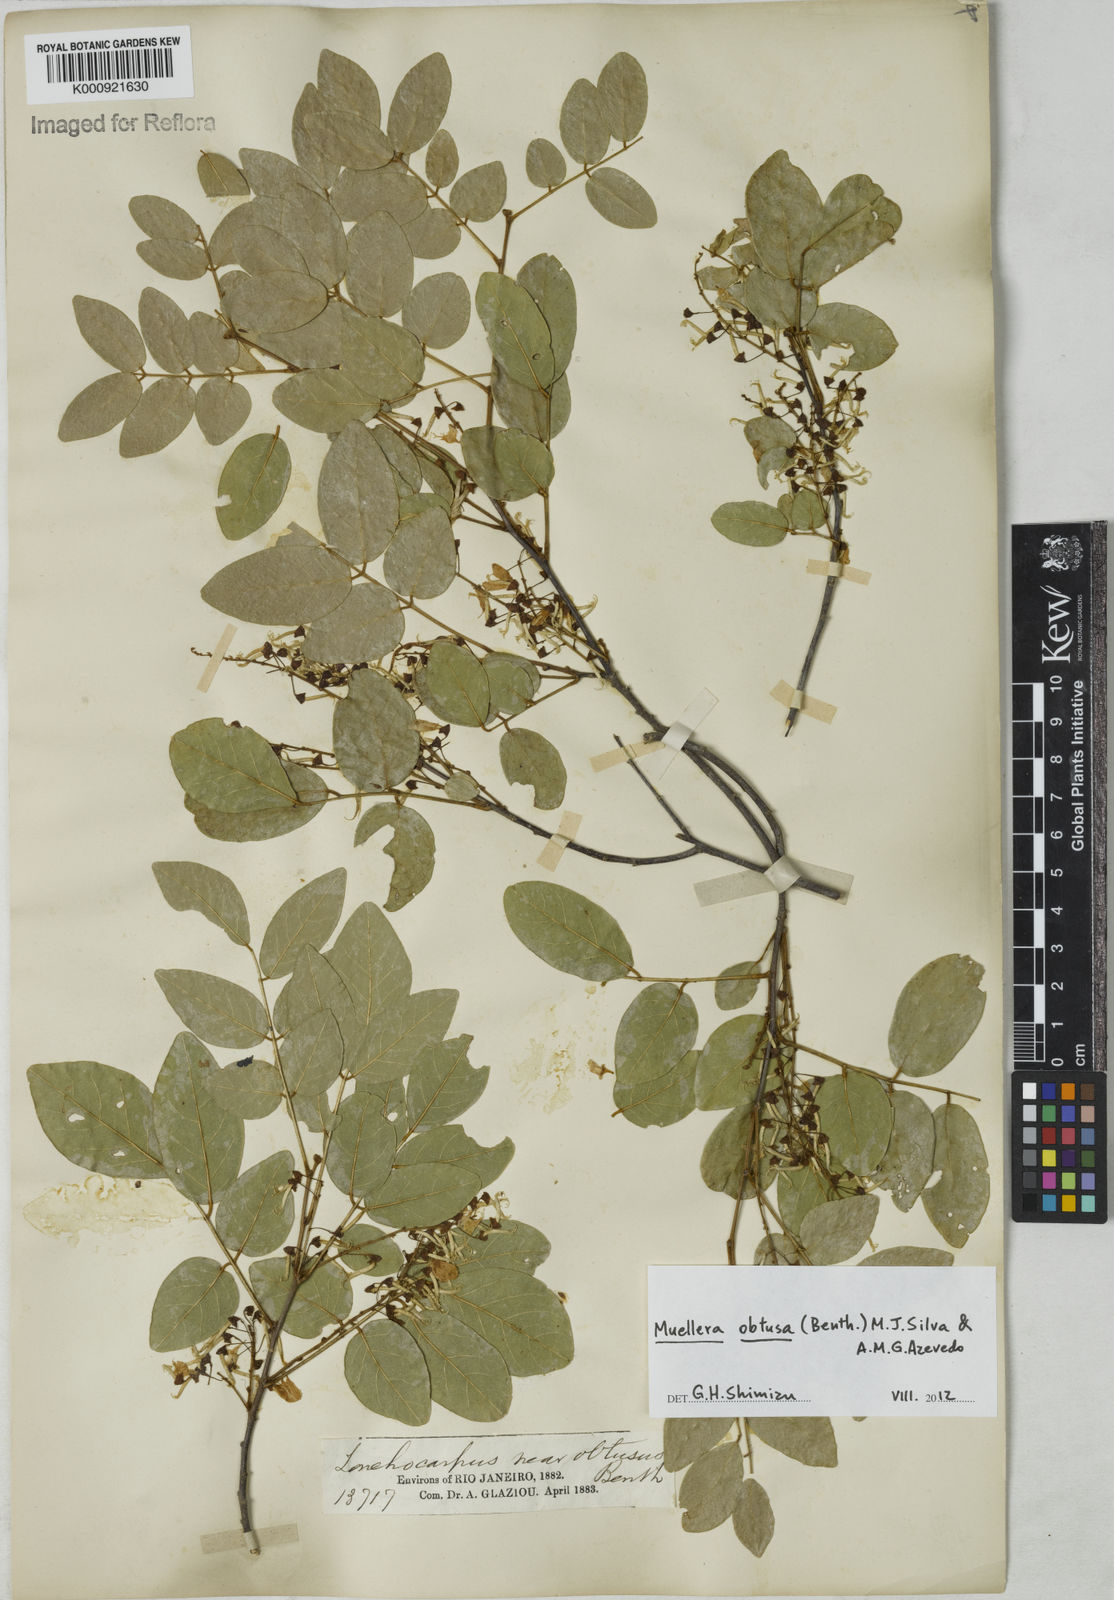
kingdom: Plantae
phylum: Tracheophyta
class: Magnoliopsida
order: Fabales
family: Fabaceae
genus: Muellera
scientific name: Muellera obtusa
